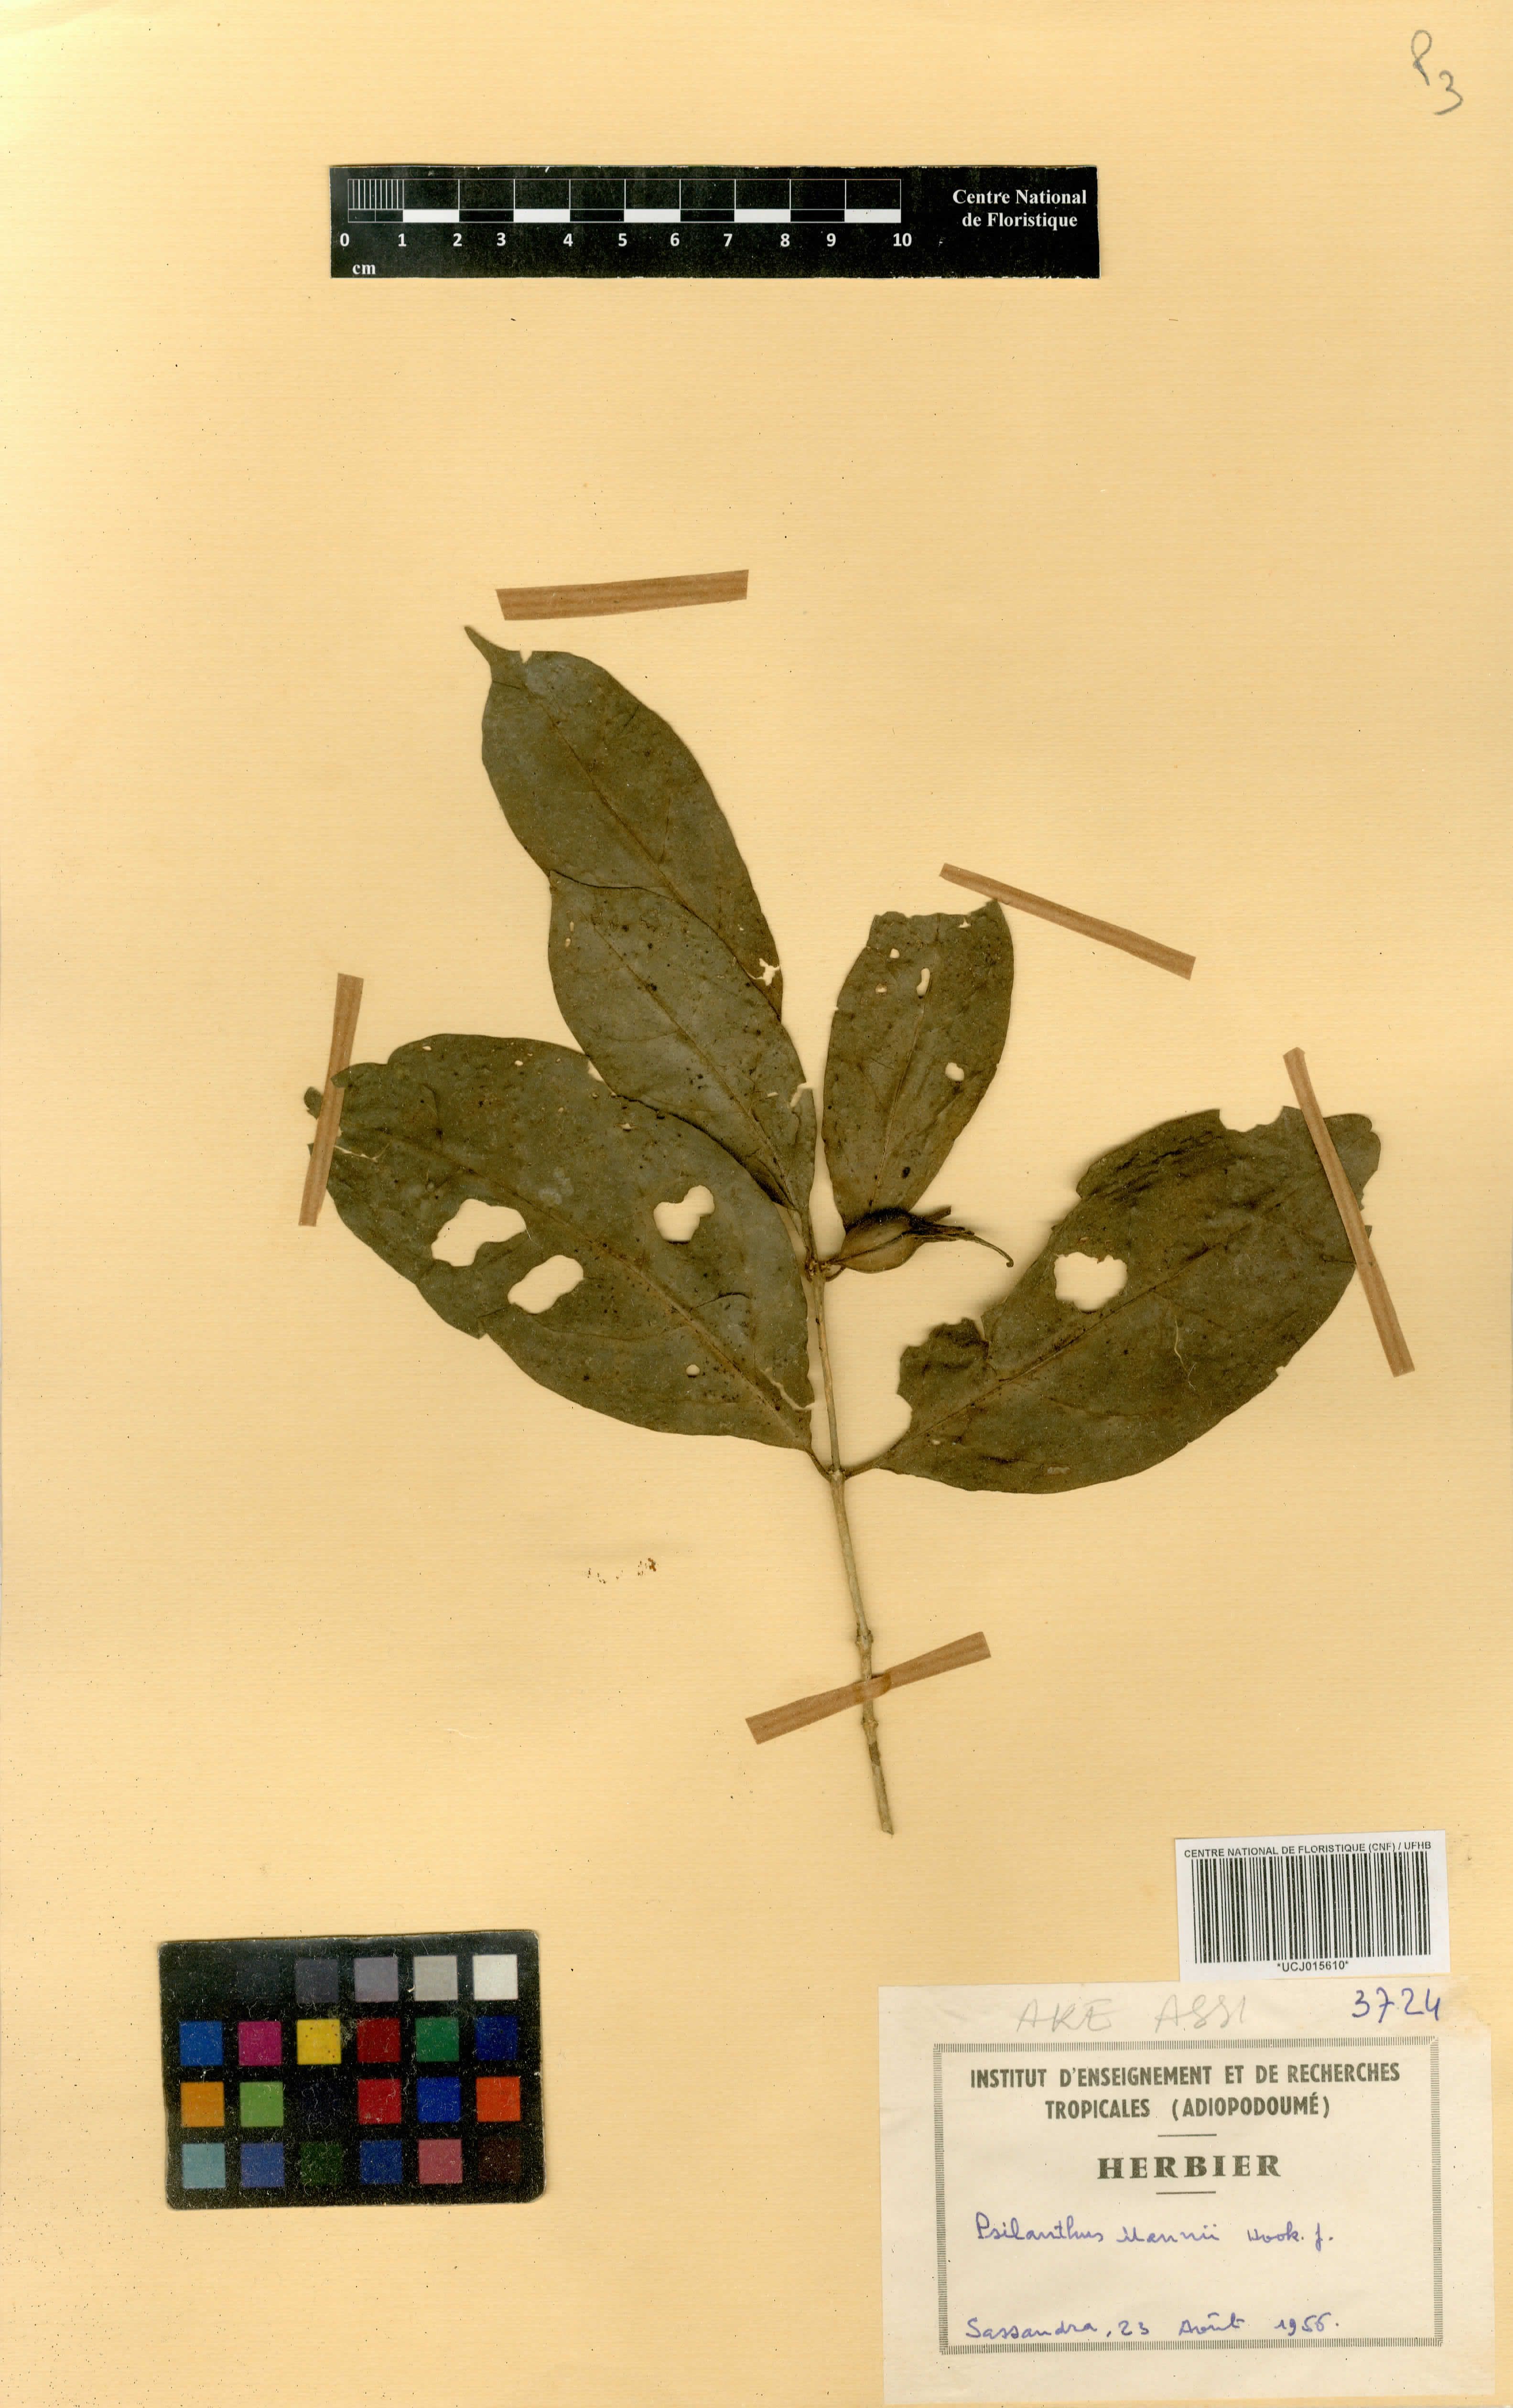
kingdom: Plantae
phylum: Tracheophyta
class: Magnoliopsida
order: Gentianales
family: Rubiaceae
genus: Coffea
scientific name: Coffea mannii
